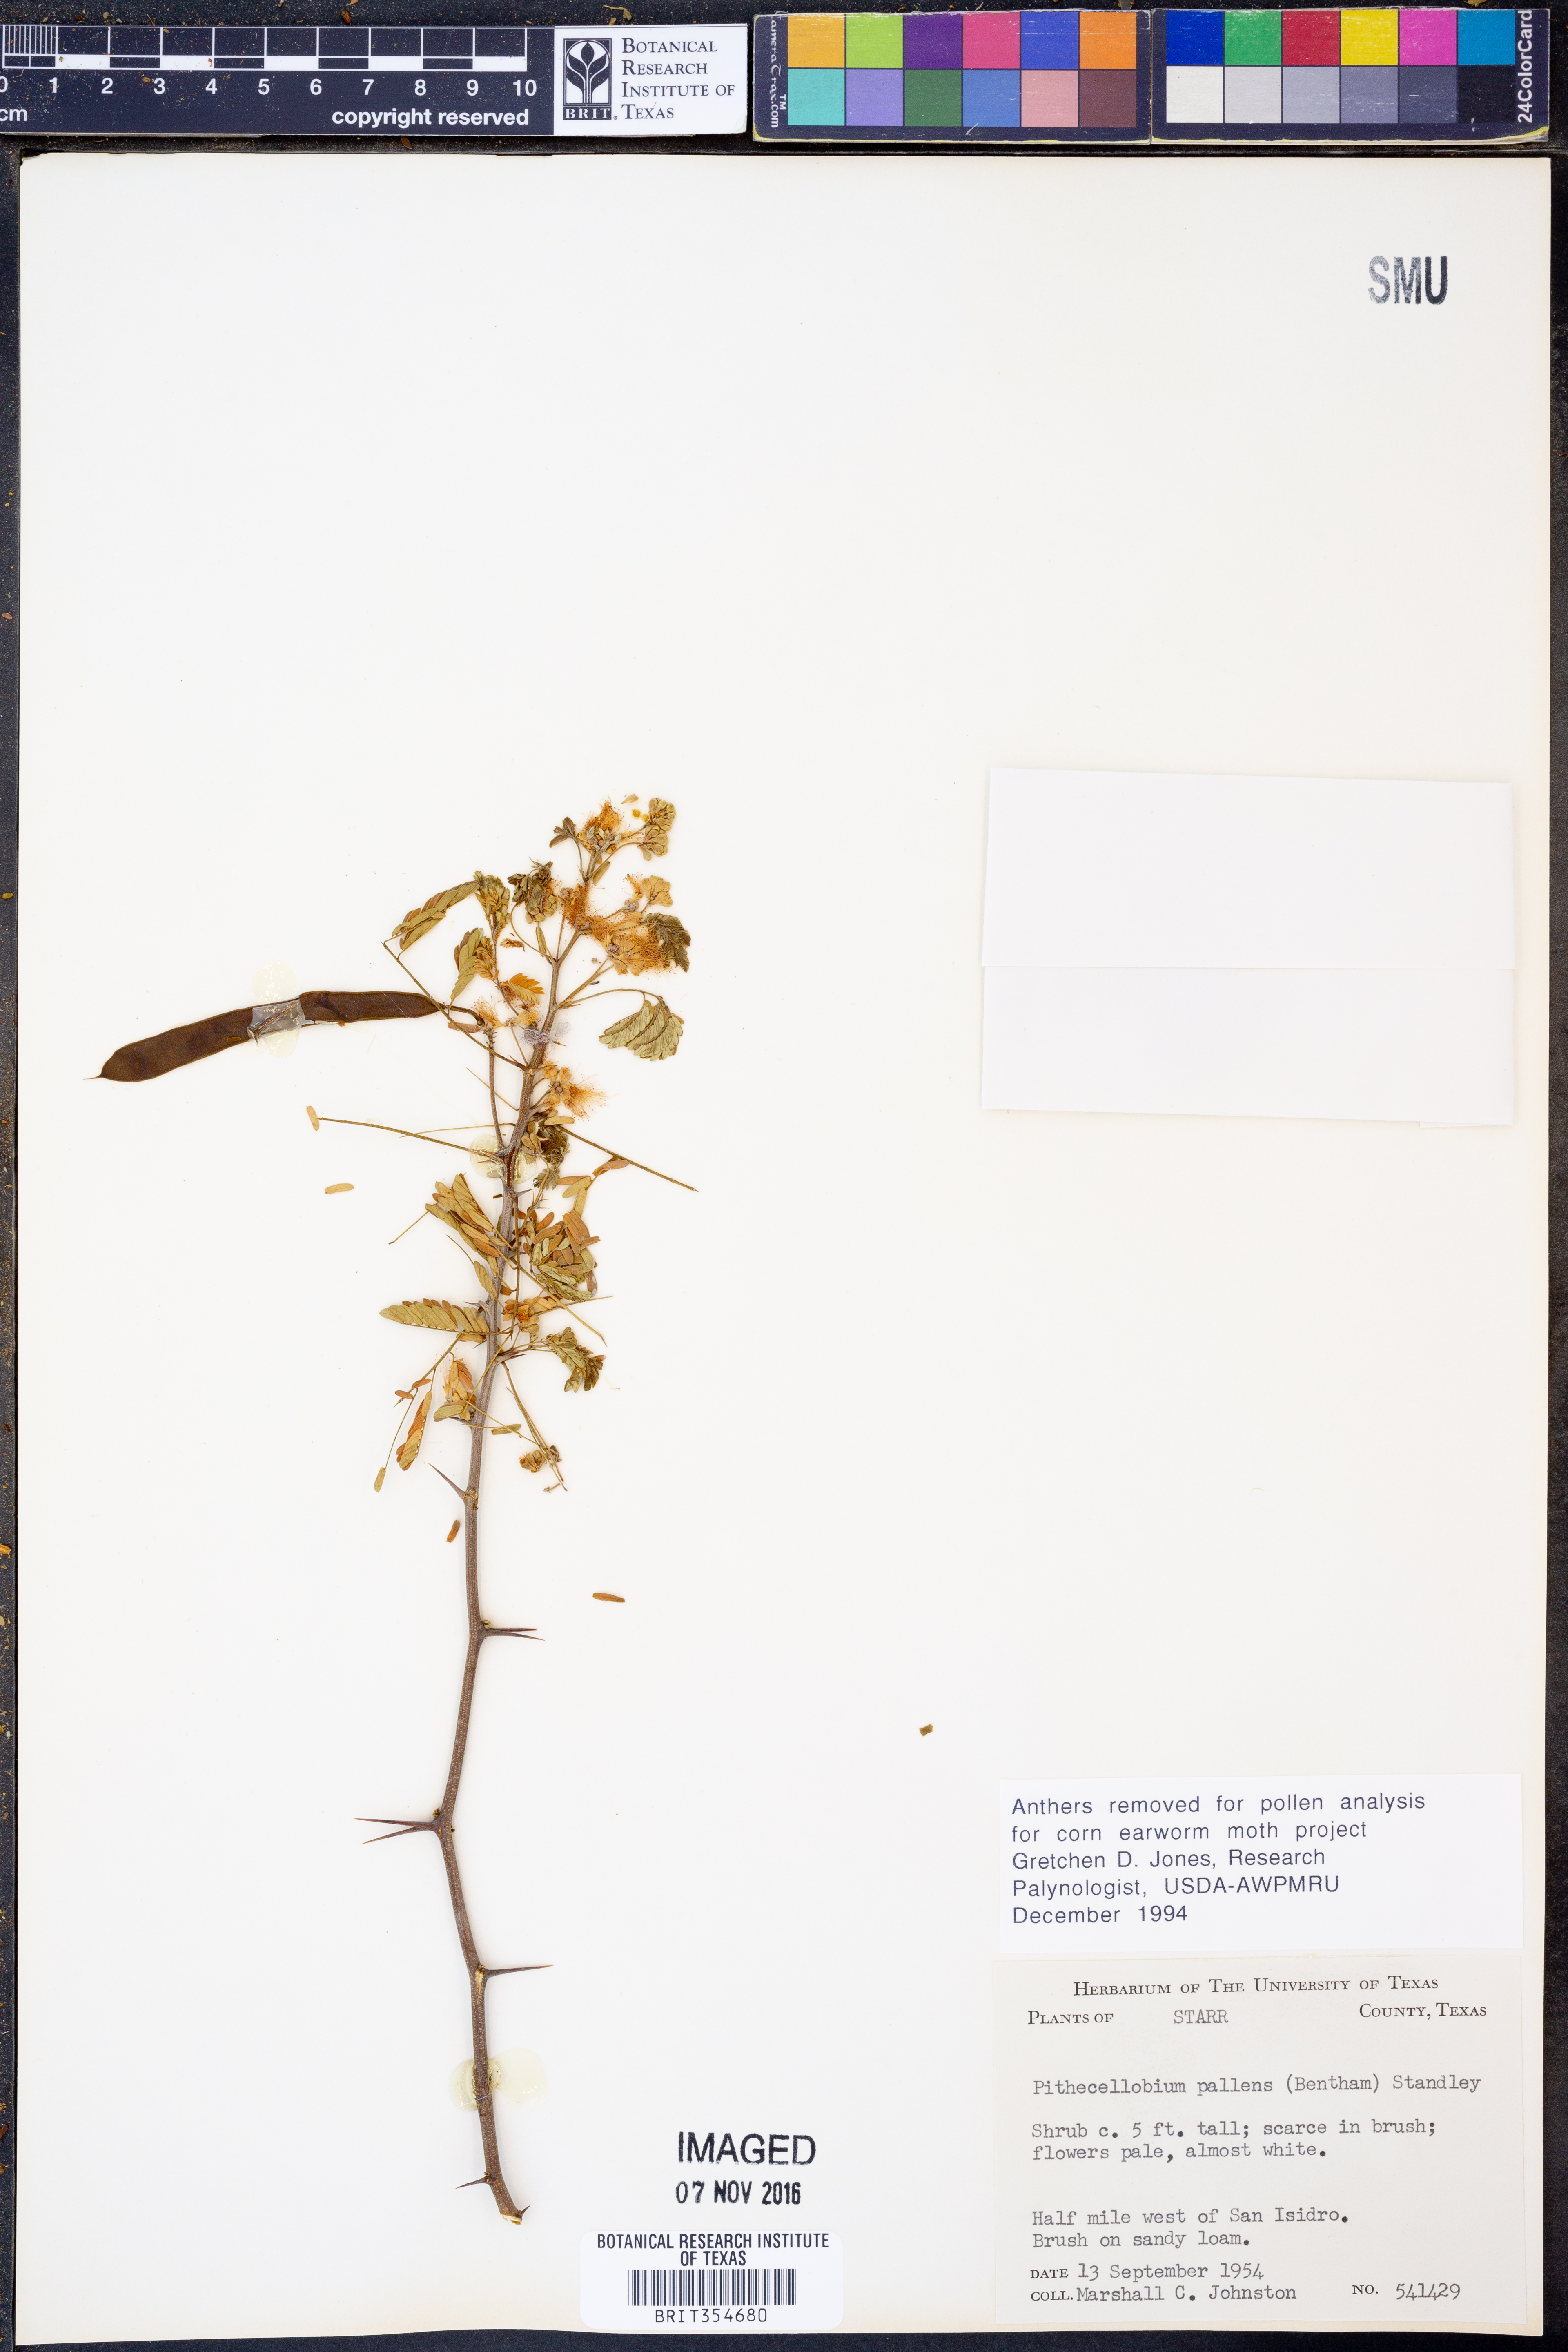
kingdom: Plantae
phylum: Tracheophyta
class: Magnoliopsida
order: Fabales
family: Fabaceae
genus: Havardia
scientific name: Havardia pallens
